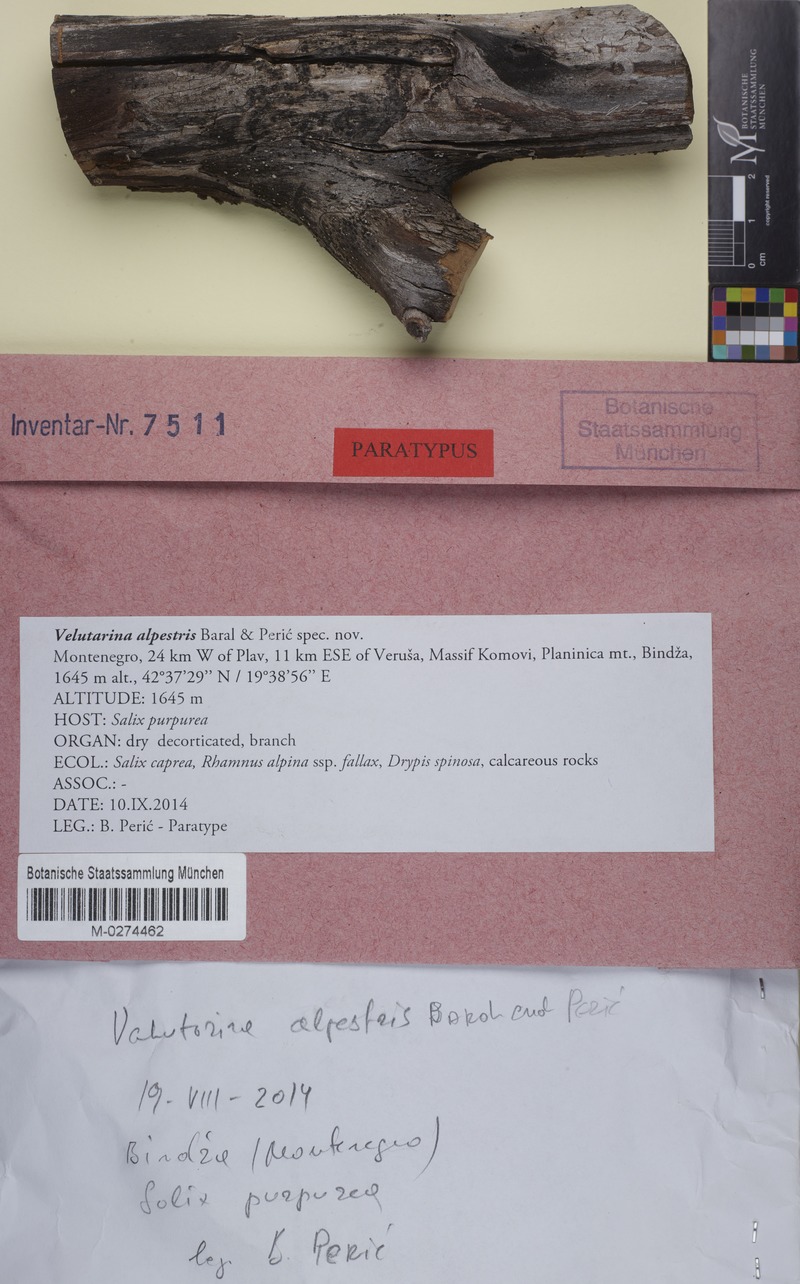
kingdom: Fungi
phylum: Ascomycota
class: Leotiomycetes
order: Helotiales
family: Cenangiaceae
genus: Cenangiopsis
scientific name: Cenangiopsis alpestris
